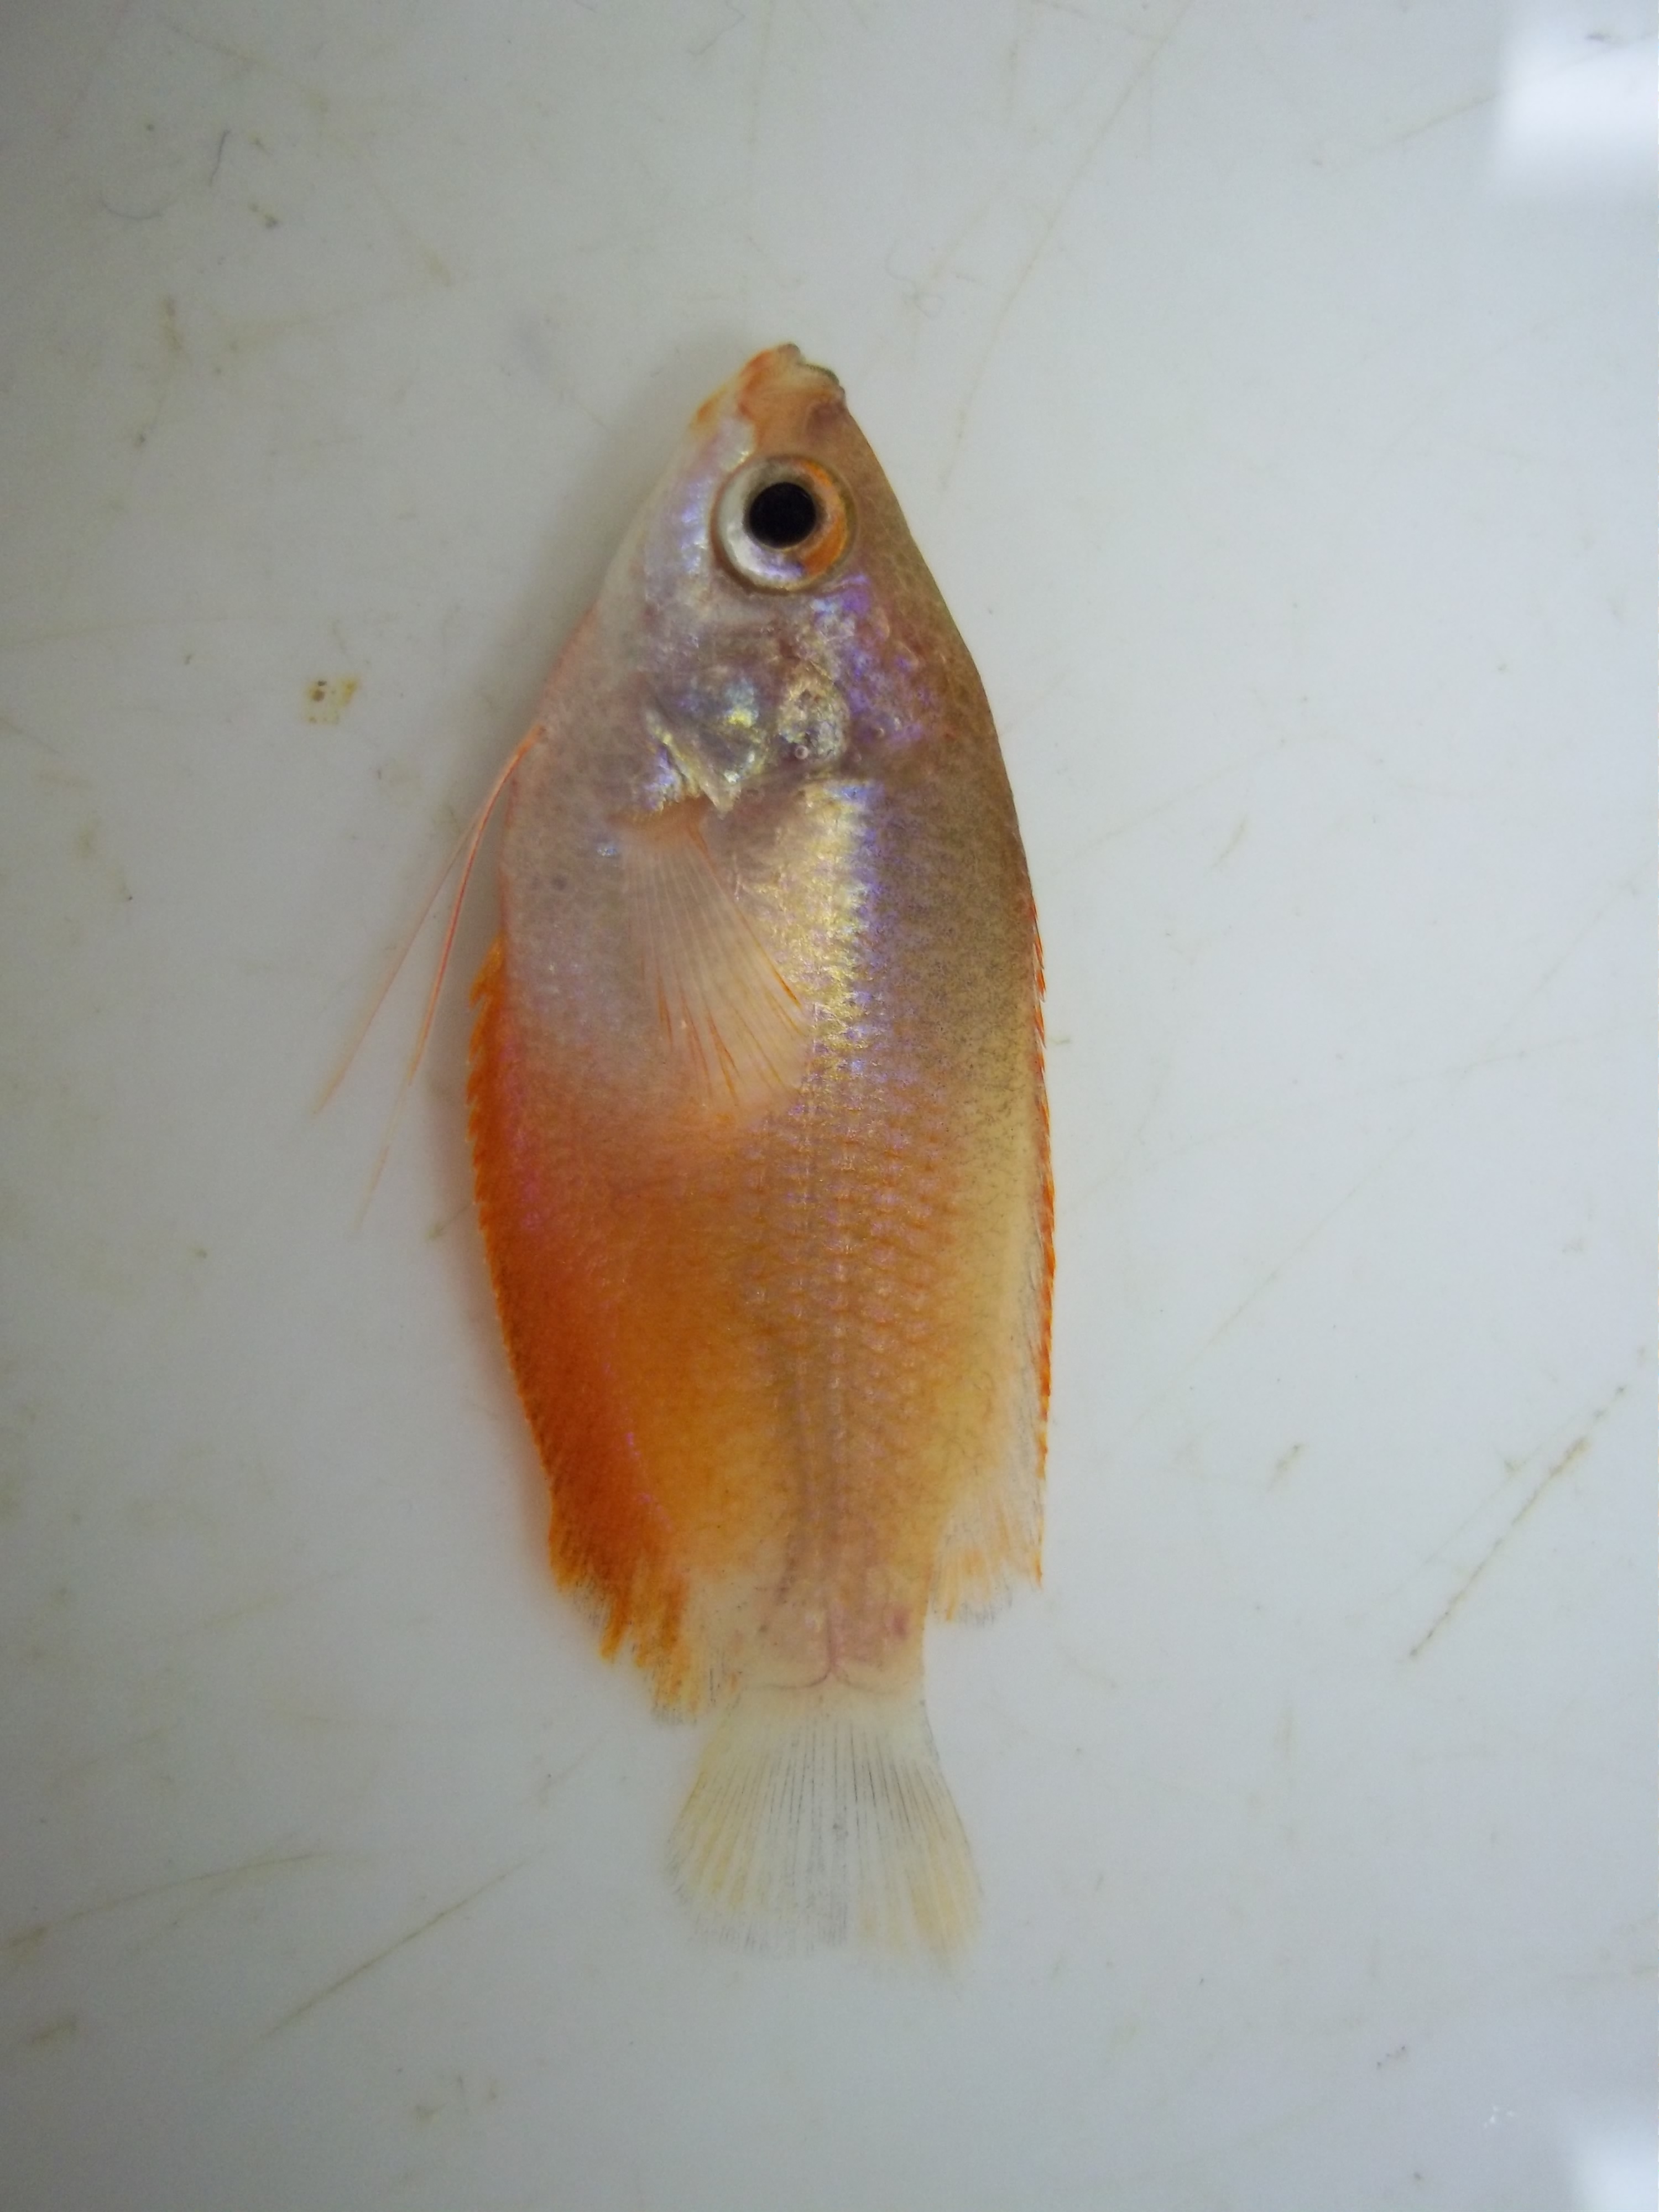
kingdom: Animalia
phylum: Chordata
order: Perciformes
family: Osphronemidae
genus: Trichogaster
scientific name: Trichogaster labiosa
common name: Thick-lipped gourami
